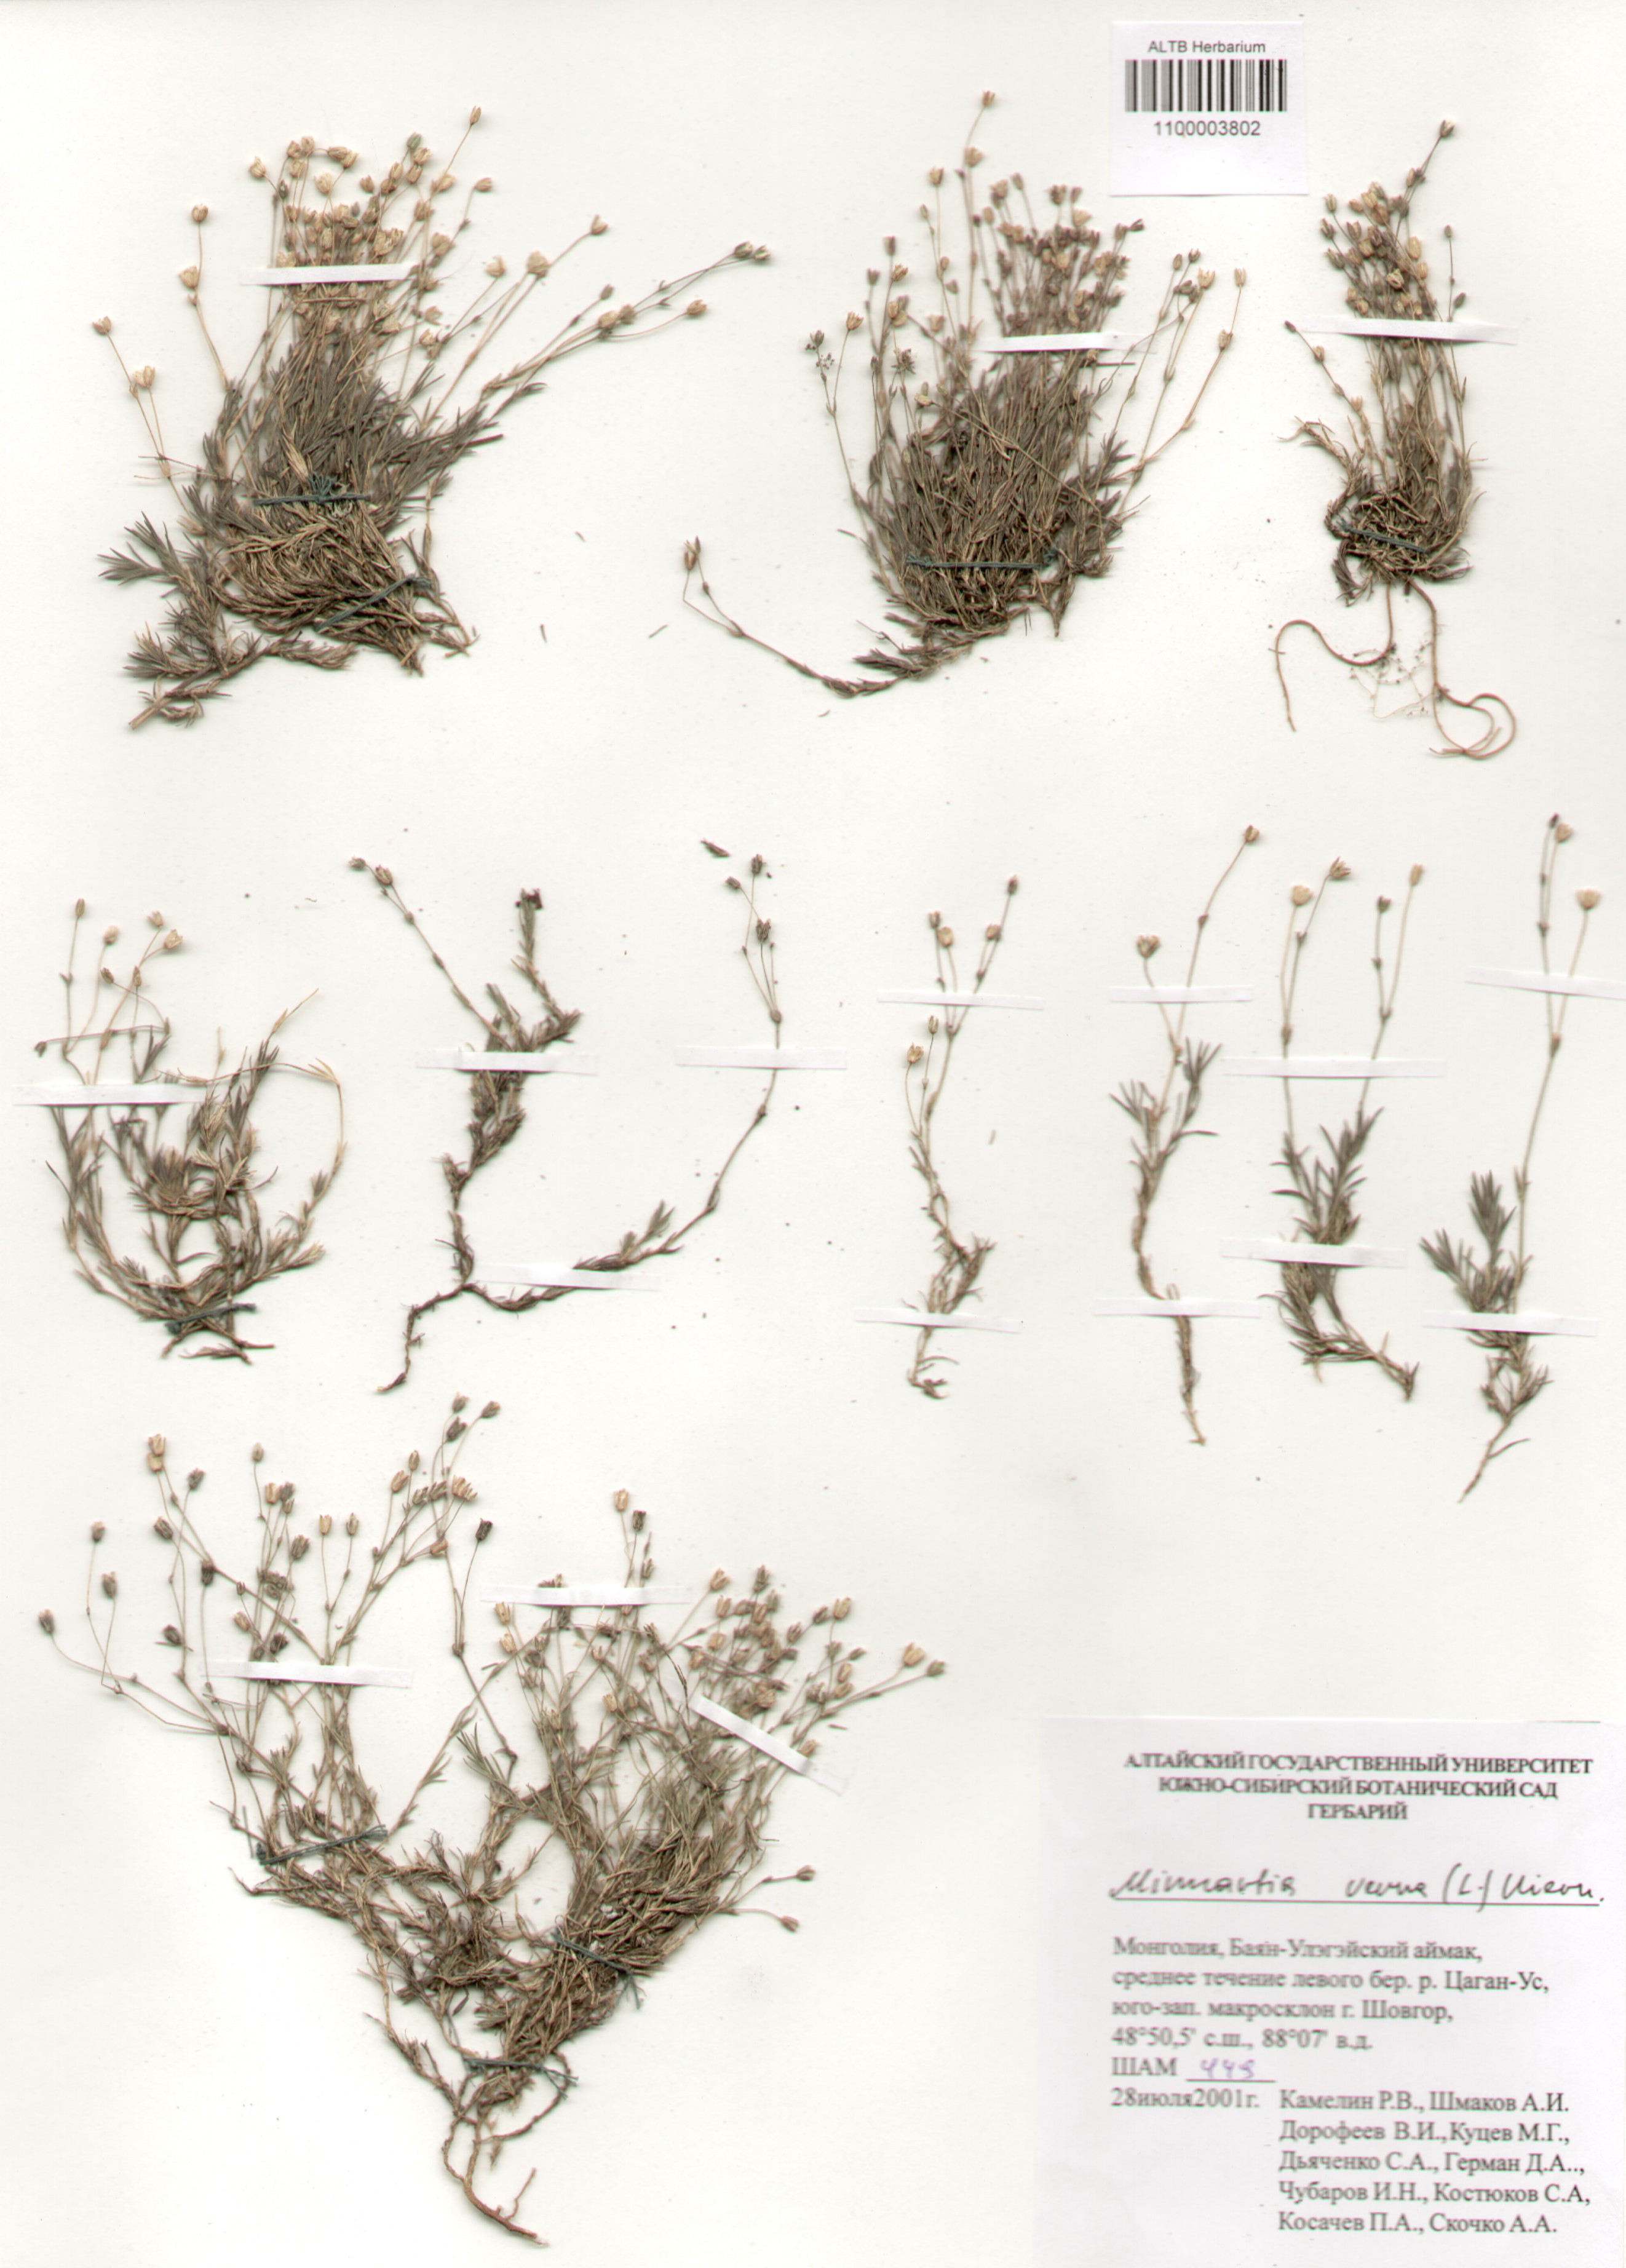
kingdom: Plantae
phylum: Tracheophyta
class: Magnoliopsida
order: Caryophyllales
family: Caryophyllaceae
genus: Sabulina
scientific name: Sabulina verna
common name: Spring sandwort
